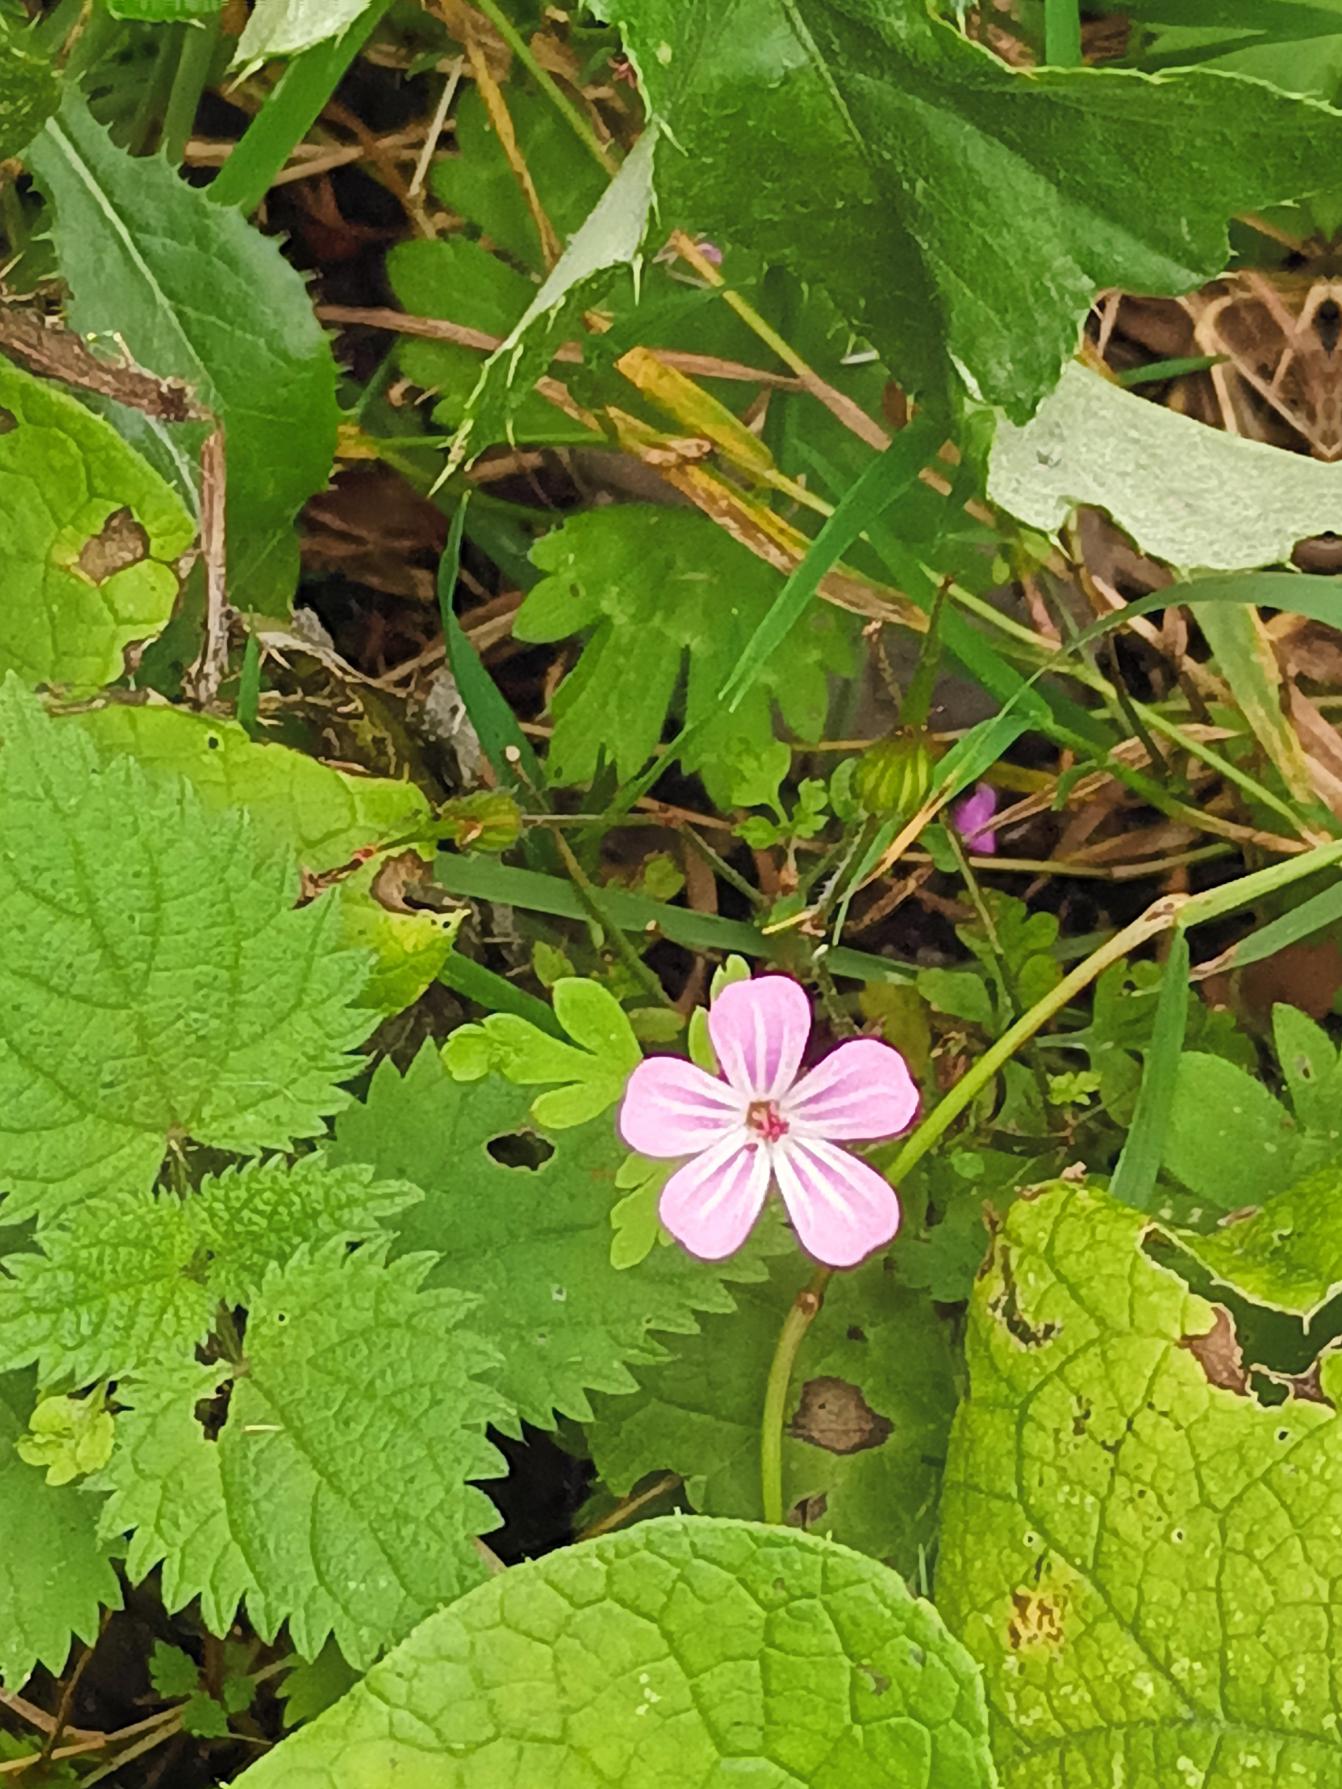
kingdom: Plantae
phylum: Tracheophyta
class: Magnoliopsida
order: Geraniales
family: Geraniaceae
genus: Geranium
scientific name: Geranium robertianum
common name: Stinkende storkenæb
